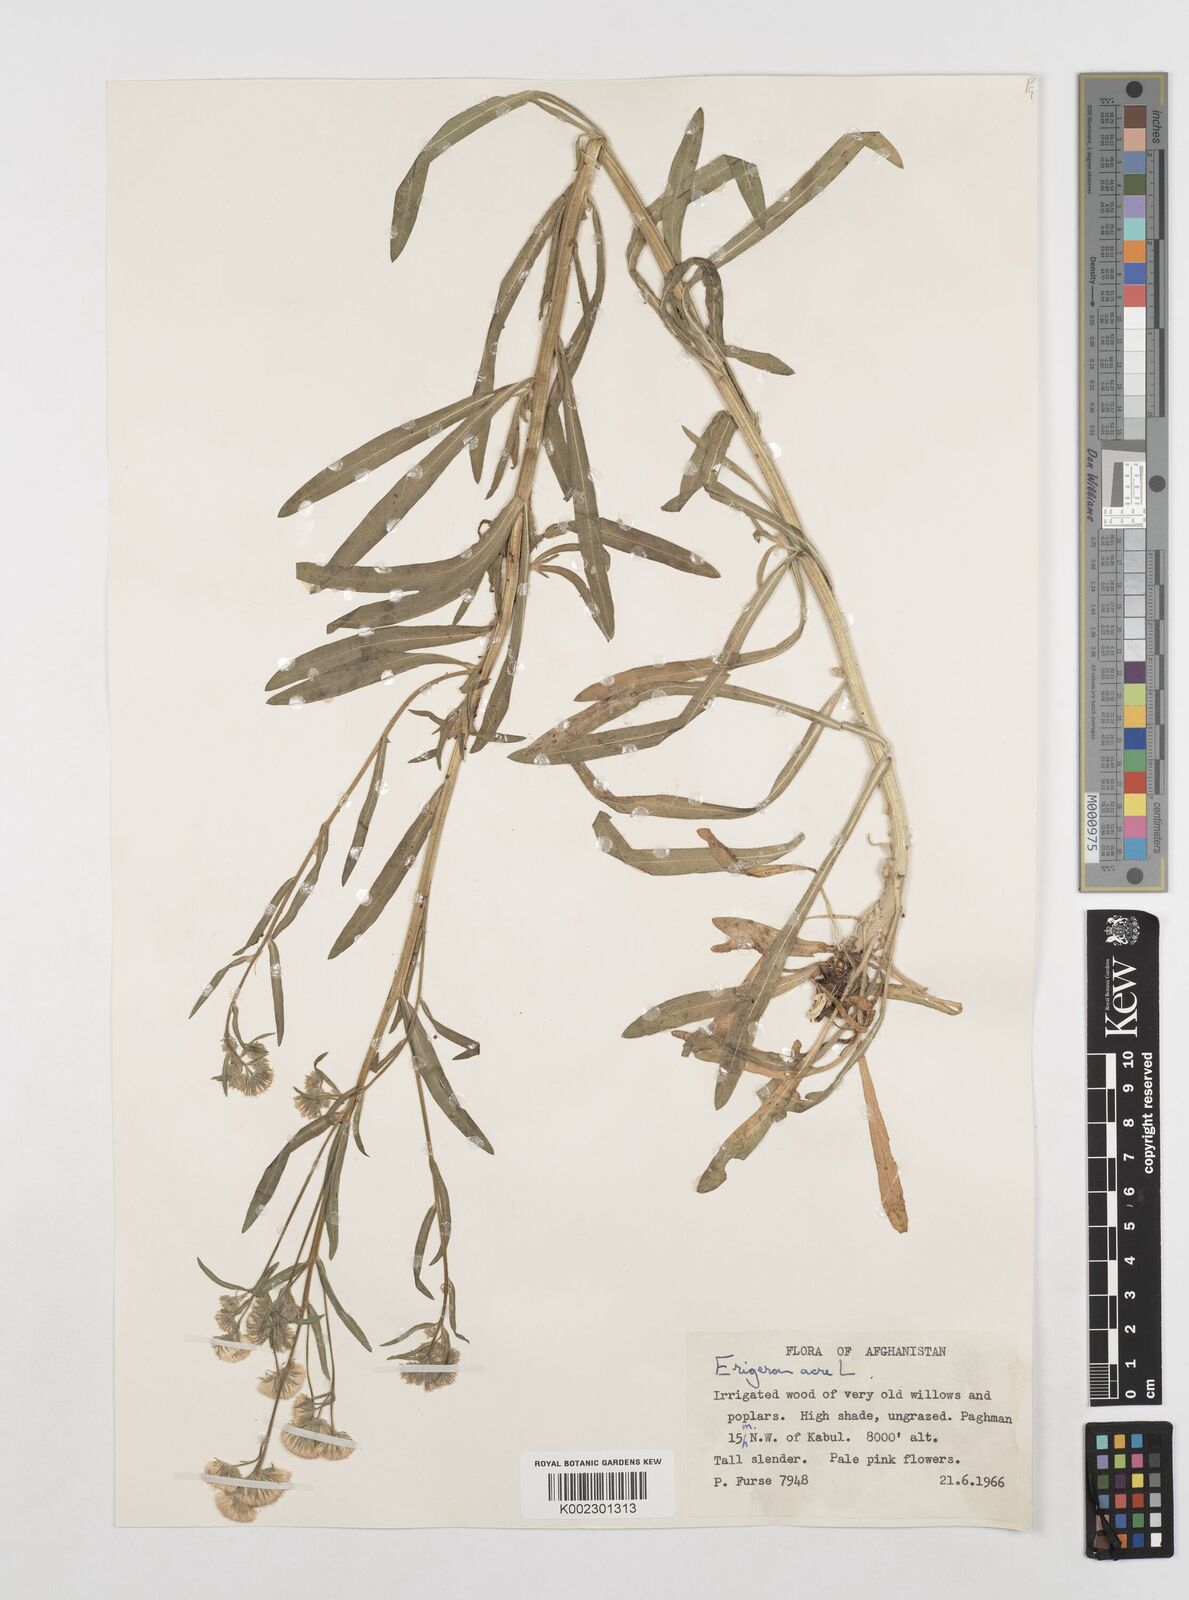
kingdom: Plantae
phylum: Tracheophyta
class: Magnoliopsida
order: Asterales
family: Asteraceae
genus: Erigeron
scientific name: Erigeron acris
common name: Blue fleabane
